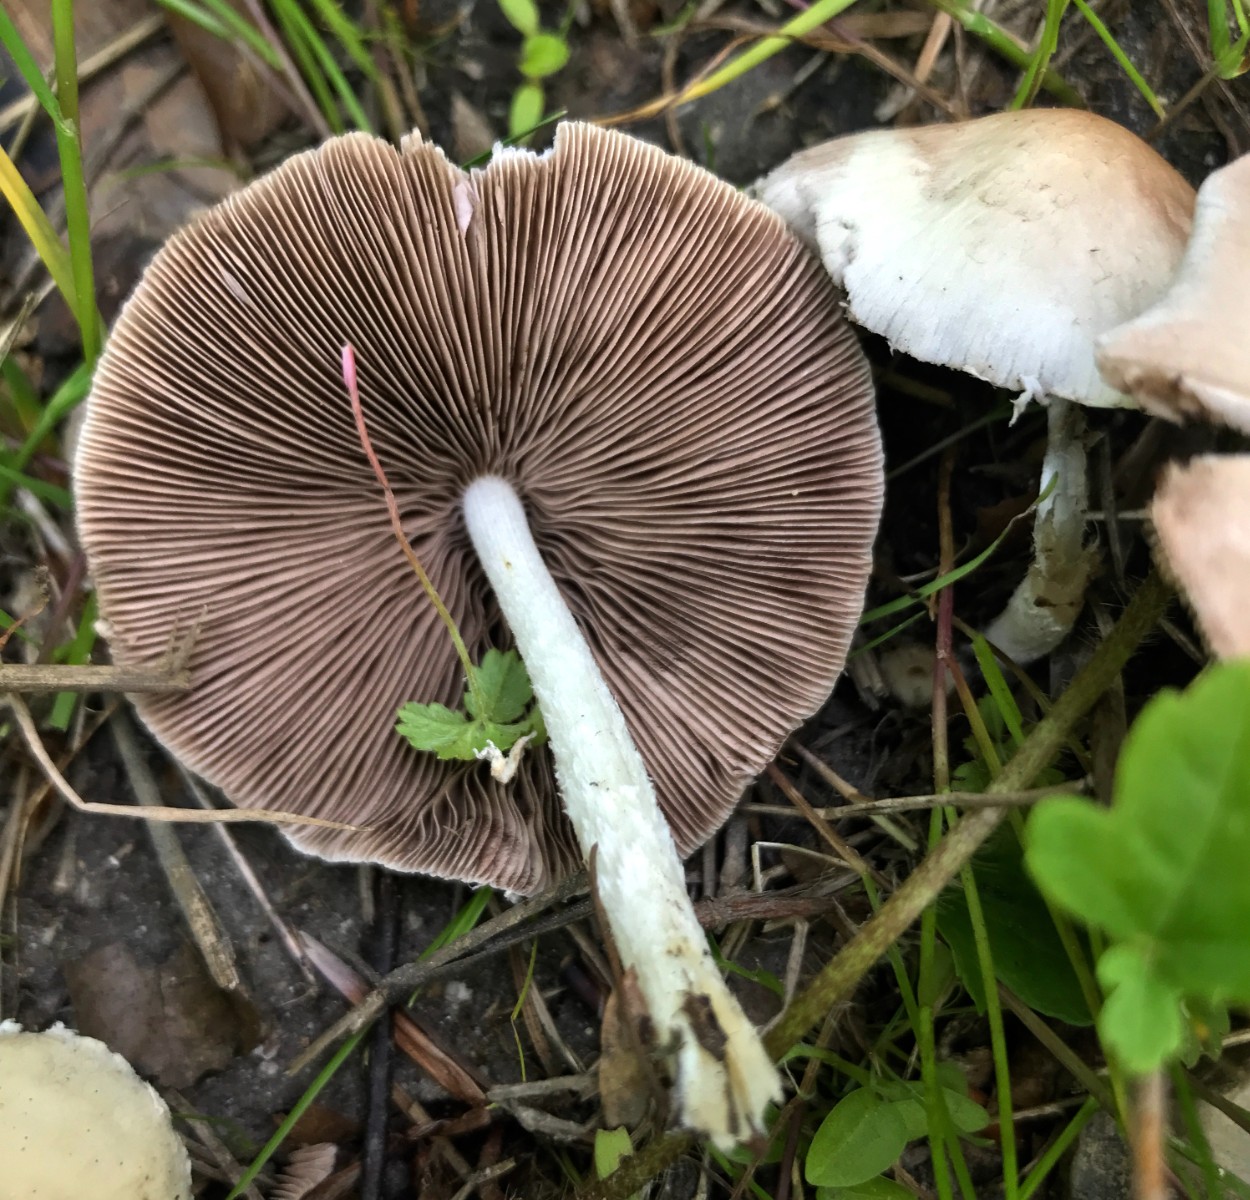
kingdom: Fungi
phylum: Basidiomycota
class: Agaricomycetes
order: Agaricales
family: Psathyrellaceae
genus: Candolleomyces
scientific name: Candolleomyces candolleanus
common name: Candolles mørkhat
